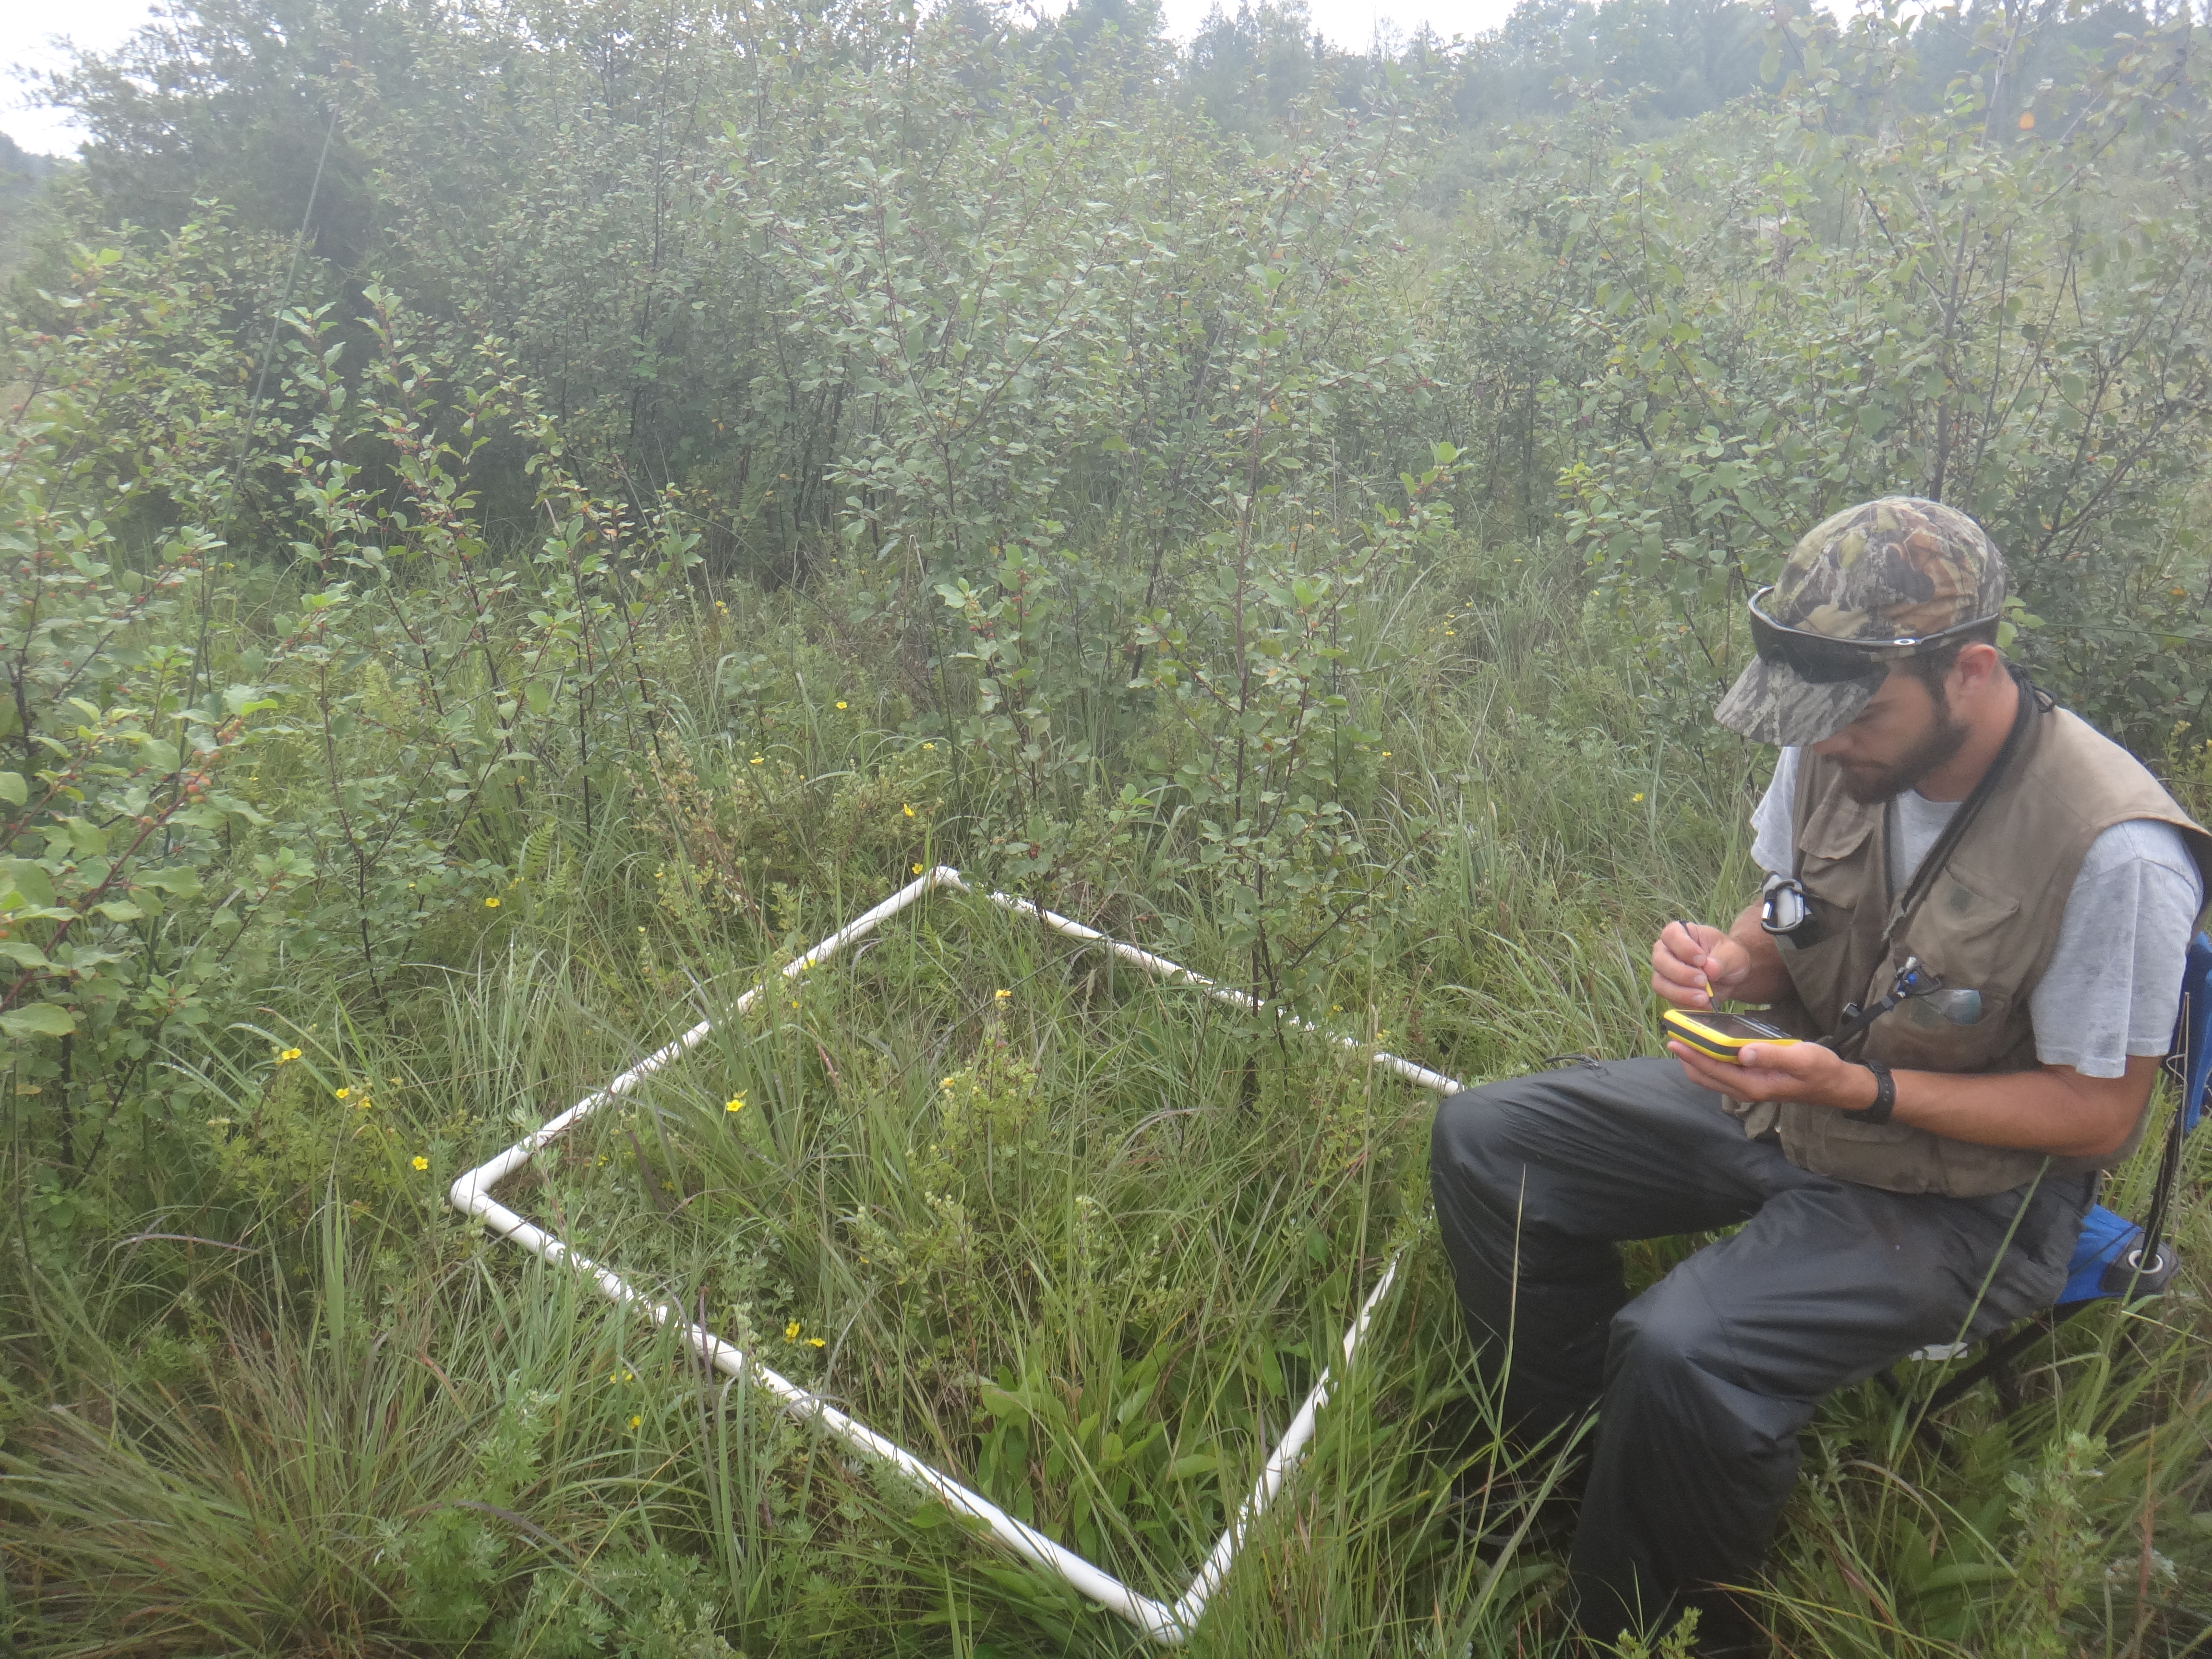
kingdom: Plantae
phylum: Tracheophyta
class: Magnoliopsida
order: Gentianales
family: Rubiaceae
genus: Galium
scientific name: Galium boreale
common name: Northern bedstraw
